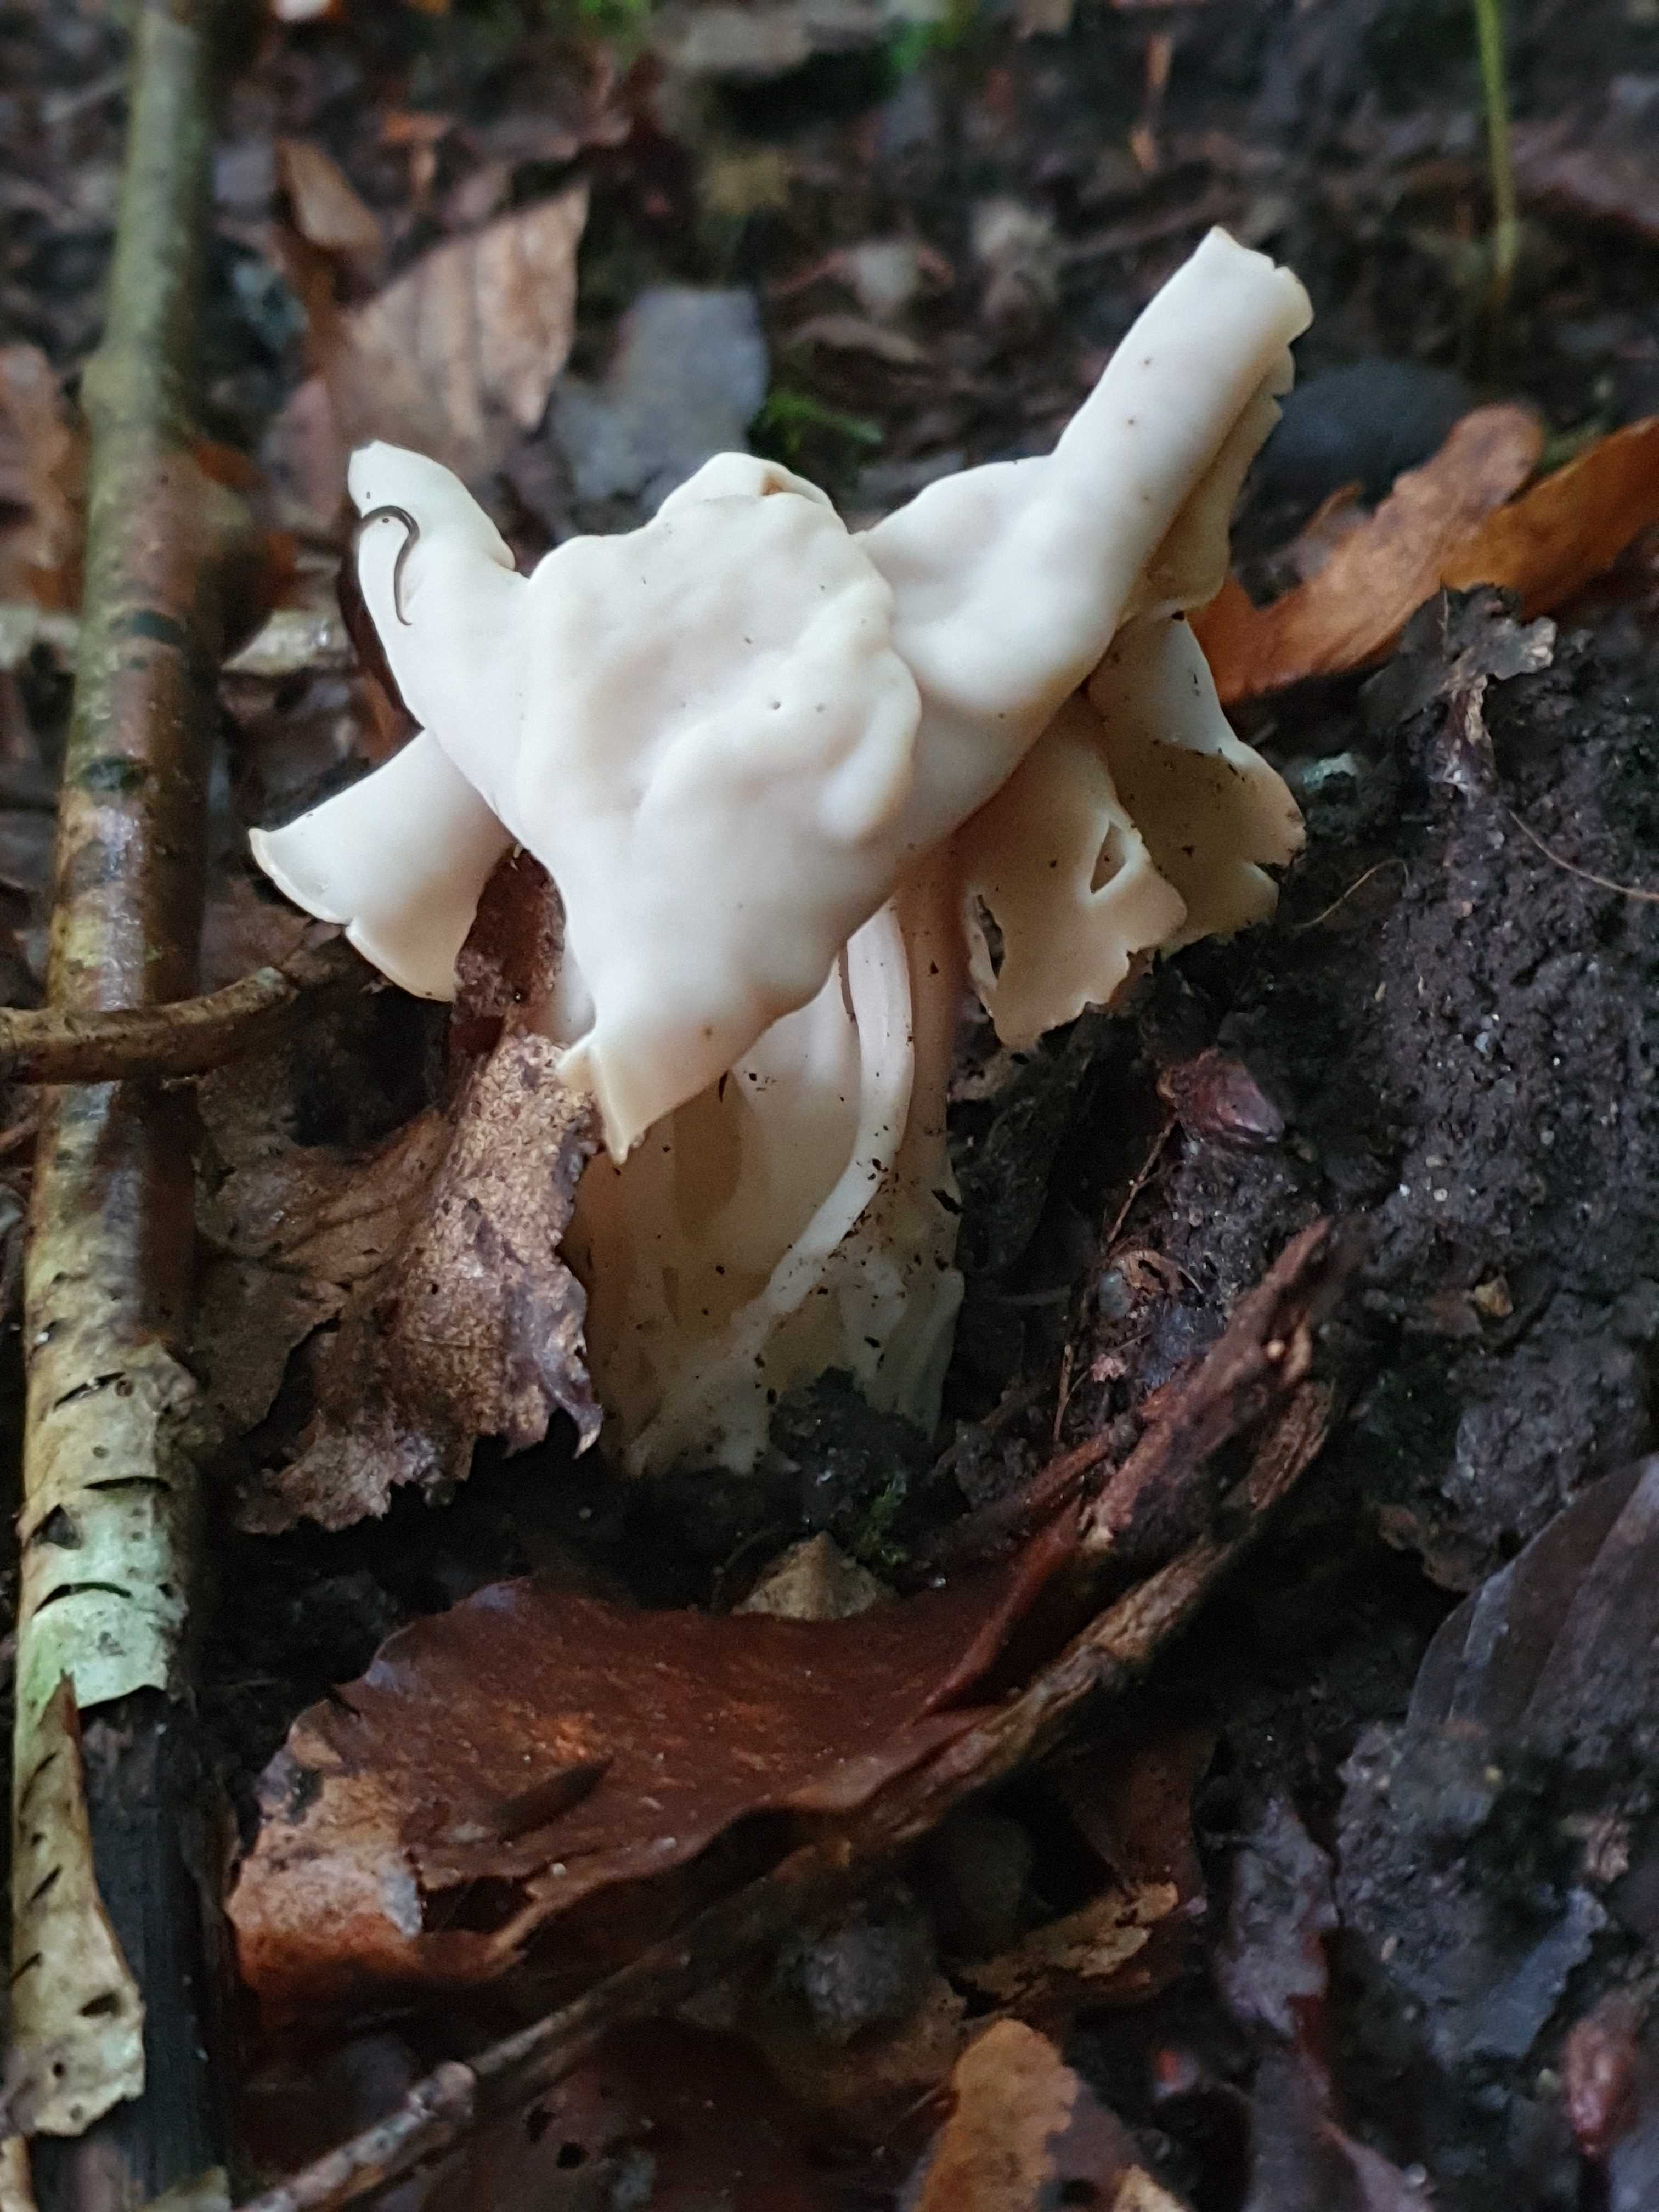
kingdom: Fungi
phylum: Ascomycota
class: Pezizomycetes
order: Pezizales
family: Helvellaceae
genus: Helvella
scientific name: Helvella crispa
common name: kruset foldhat
